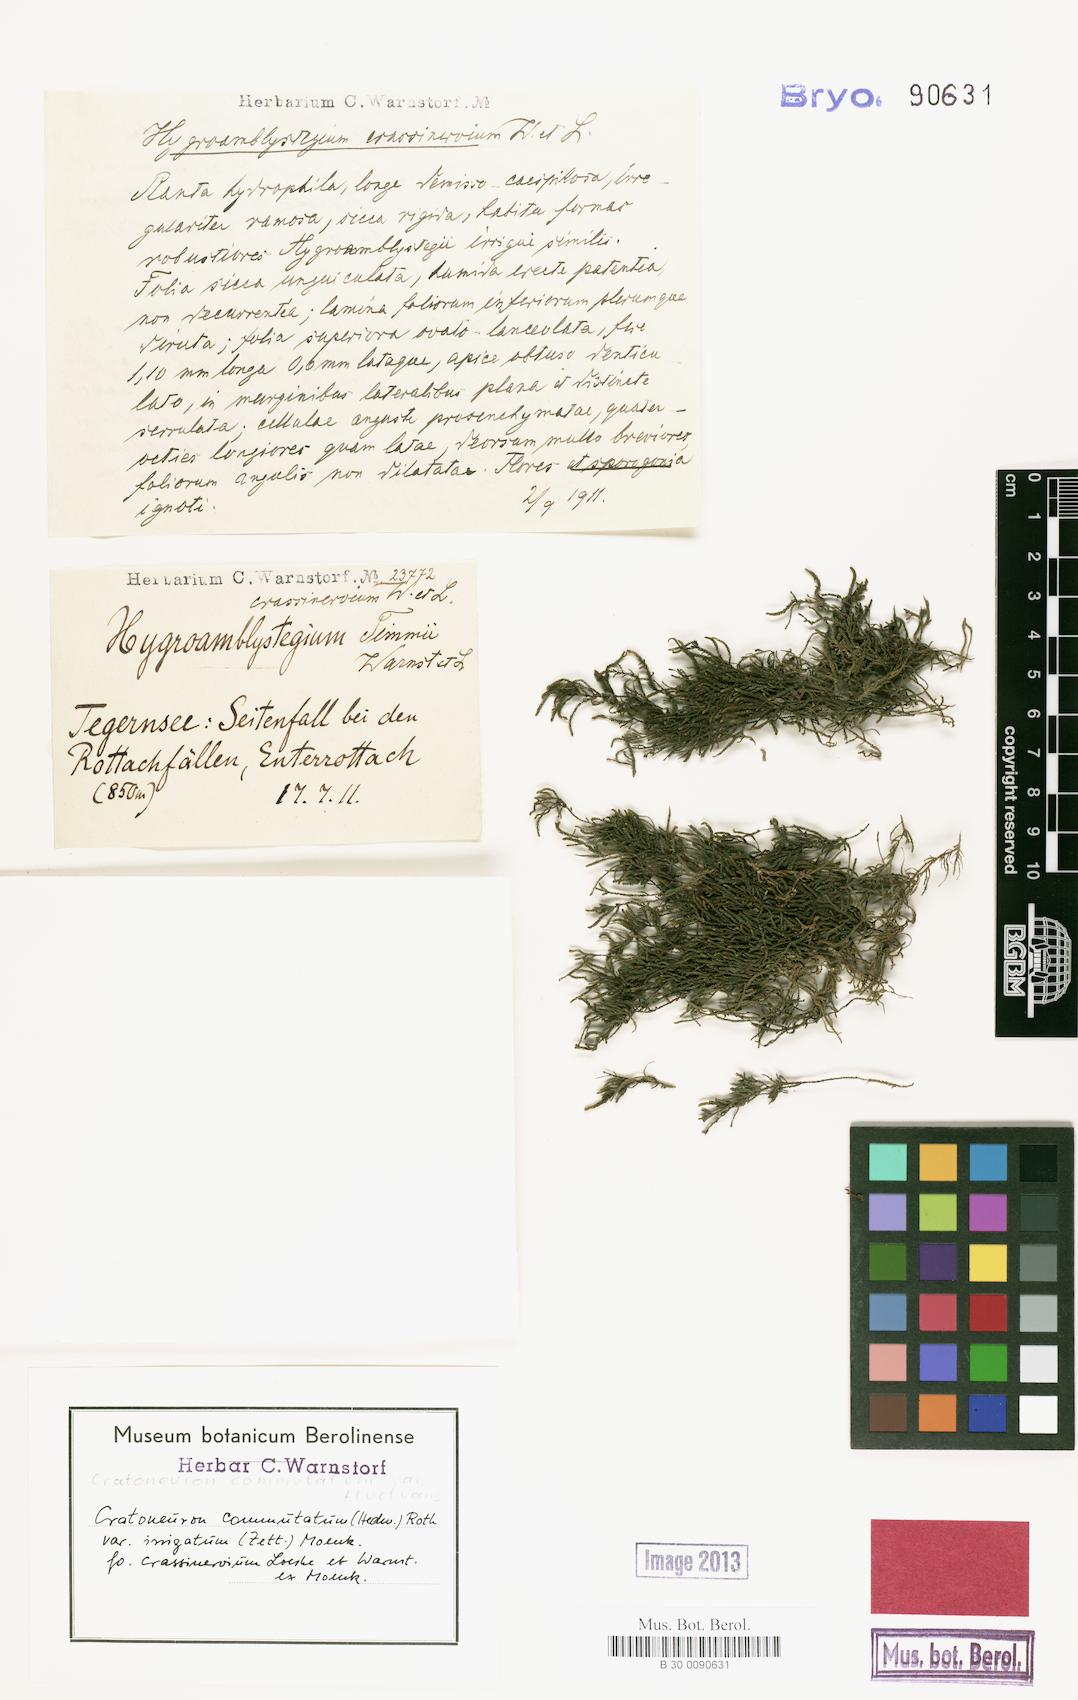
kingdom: Plantae
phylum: Bryophyta
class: Bryopsida
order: Hypnales
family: Amblystegiaceae
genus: Palustriella
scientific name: Palustriella commutata
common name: Curled hook-moss
